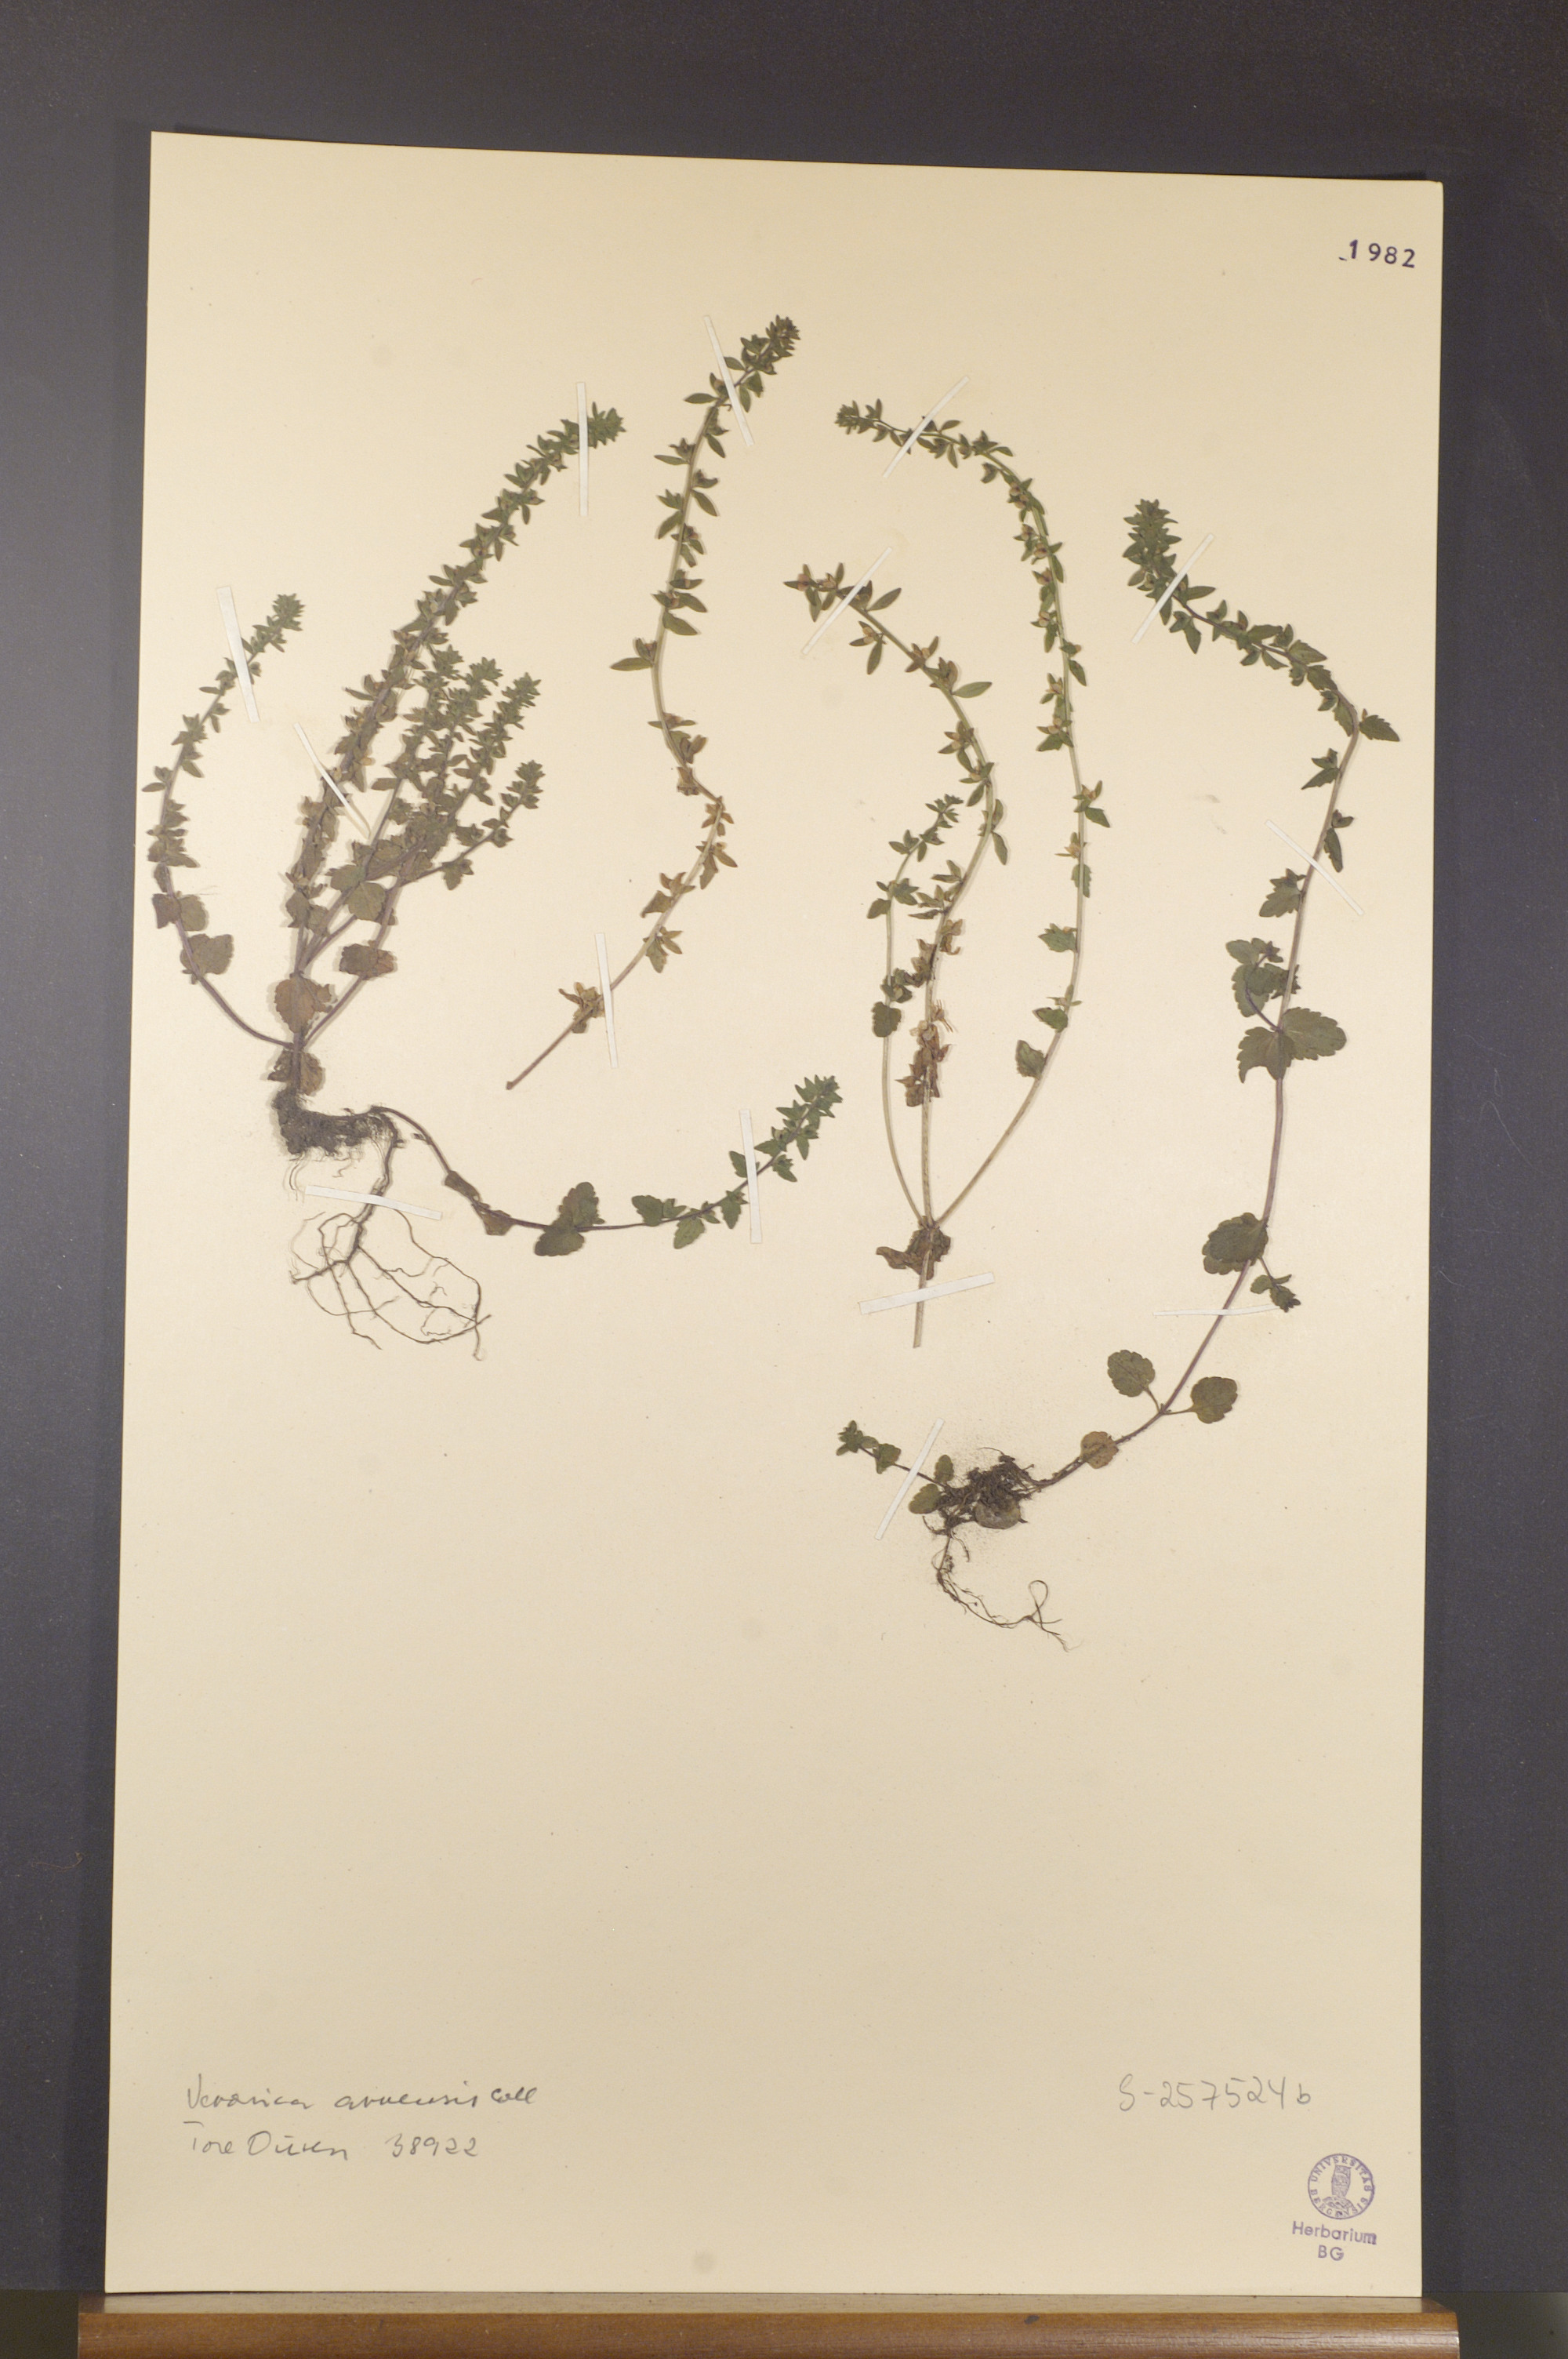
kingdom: Plantae
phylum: Tracheophyta
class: Magnoliopsida
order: Lamiales
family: Plantaginaceae
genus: Veronica
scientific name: Veronica arvensis
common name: Corn speedwell
